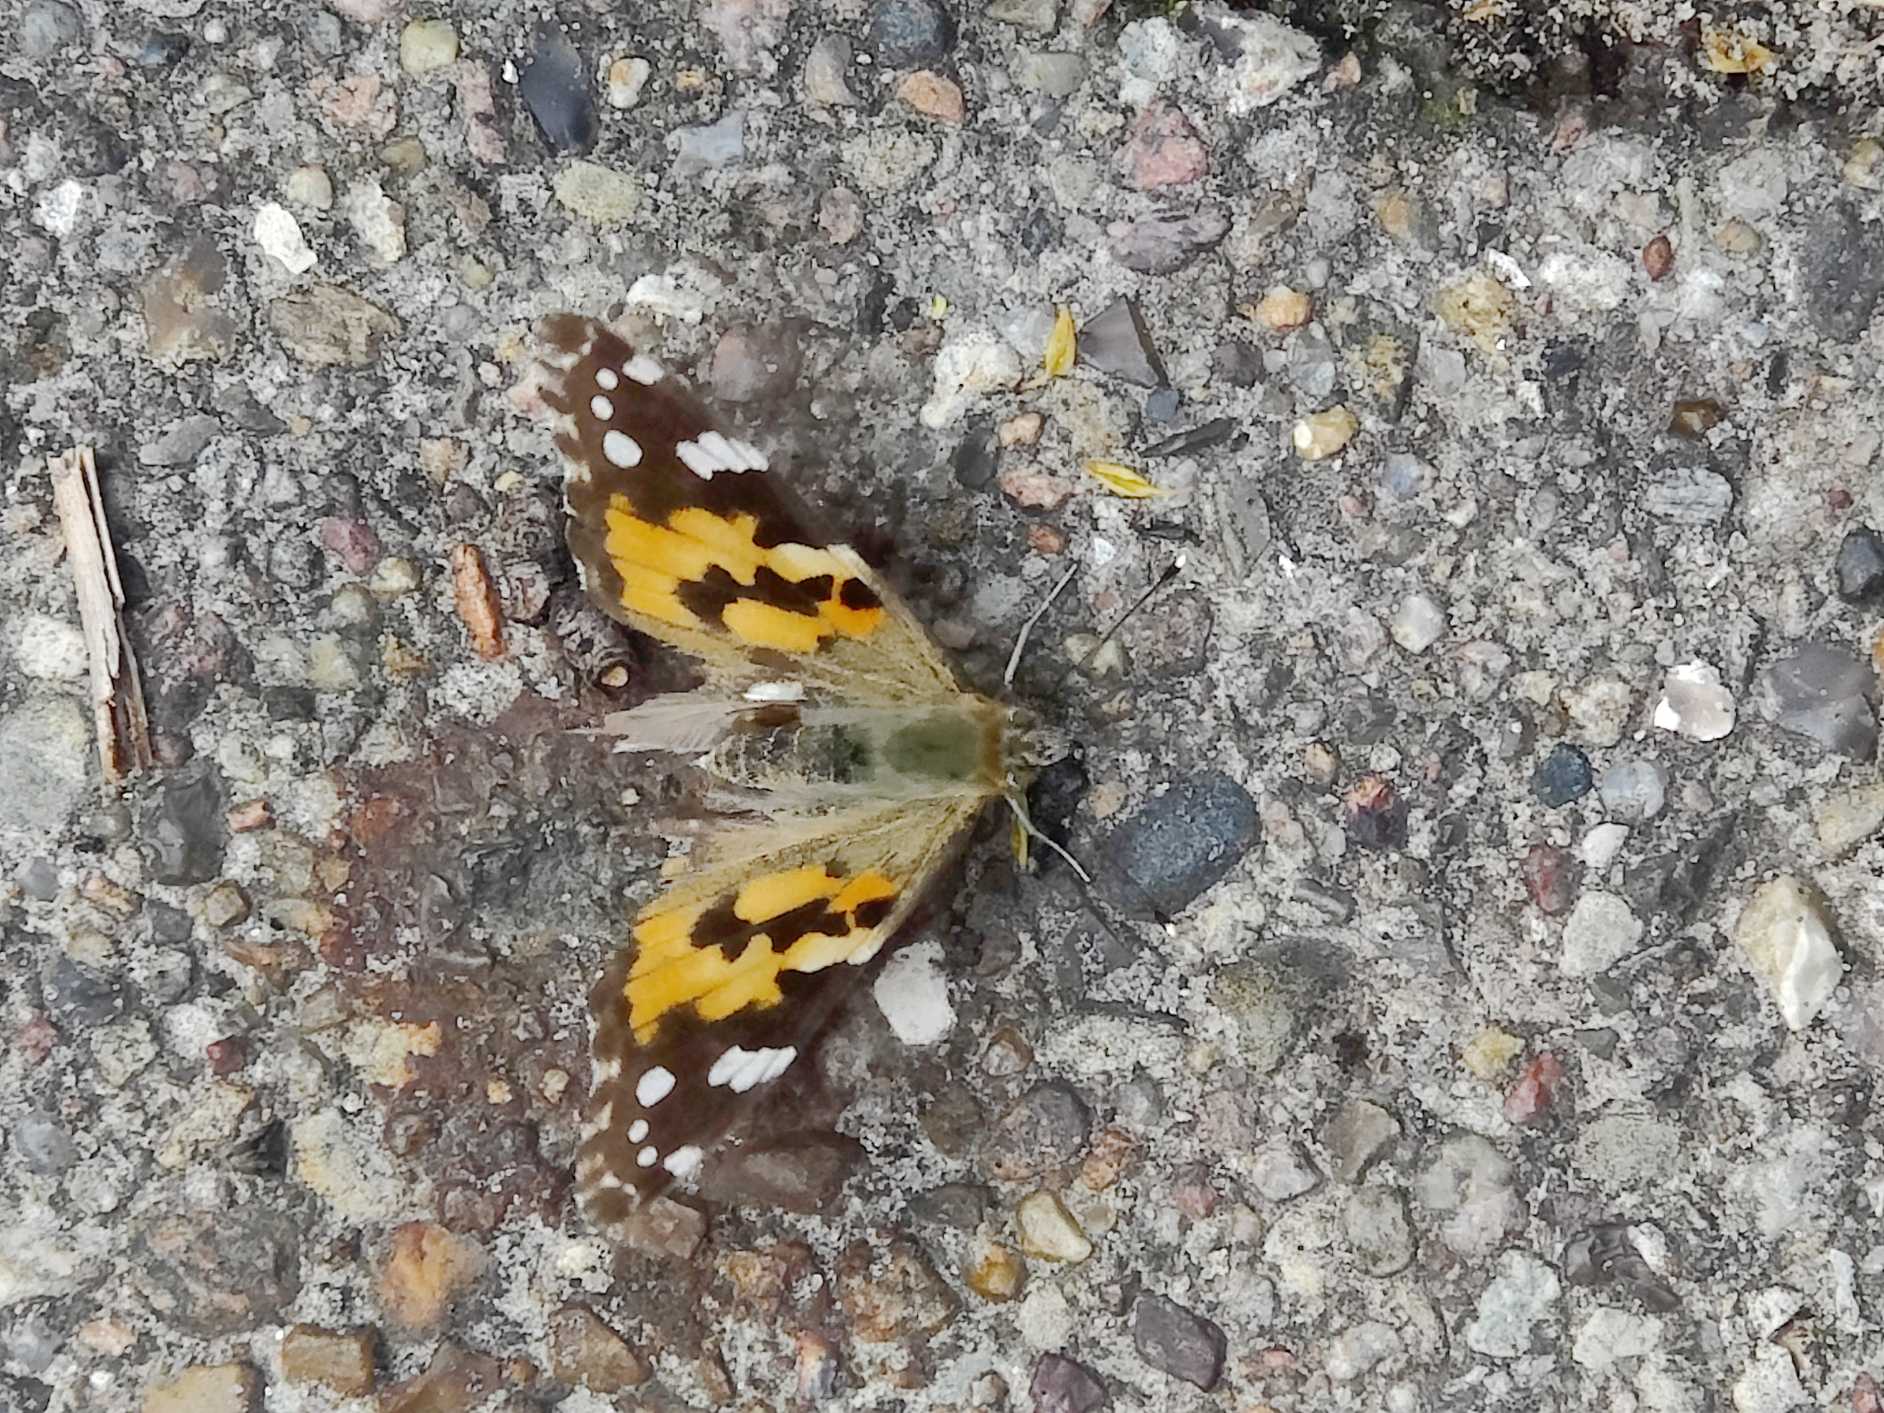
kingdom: Animalia
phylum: Arthropoda
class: Insecta
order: Lepidoptera
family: Nymphalidae
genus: Vanessa
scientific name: Vanessa cardui
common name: Tidselsommerfugl
